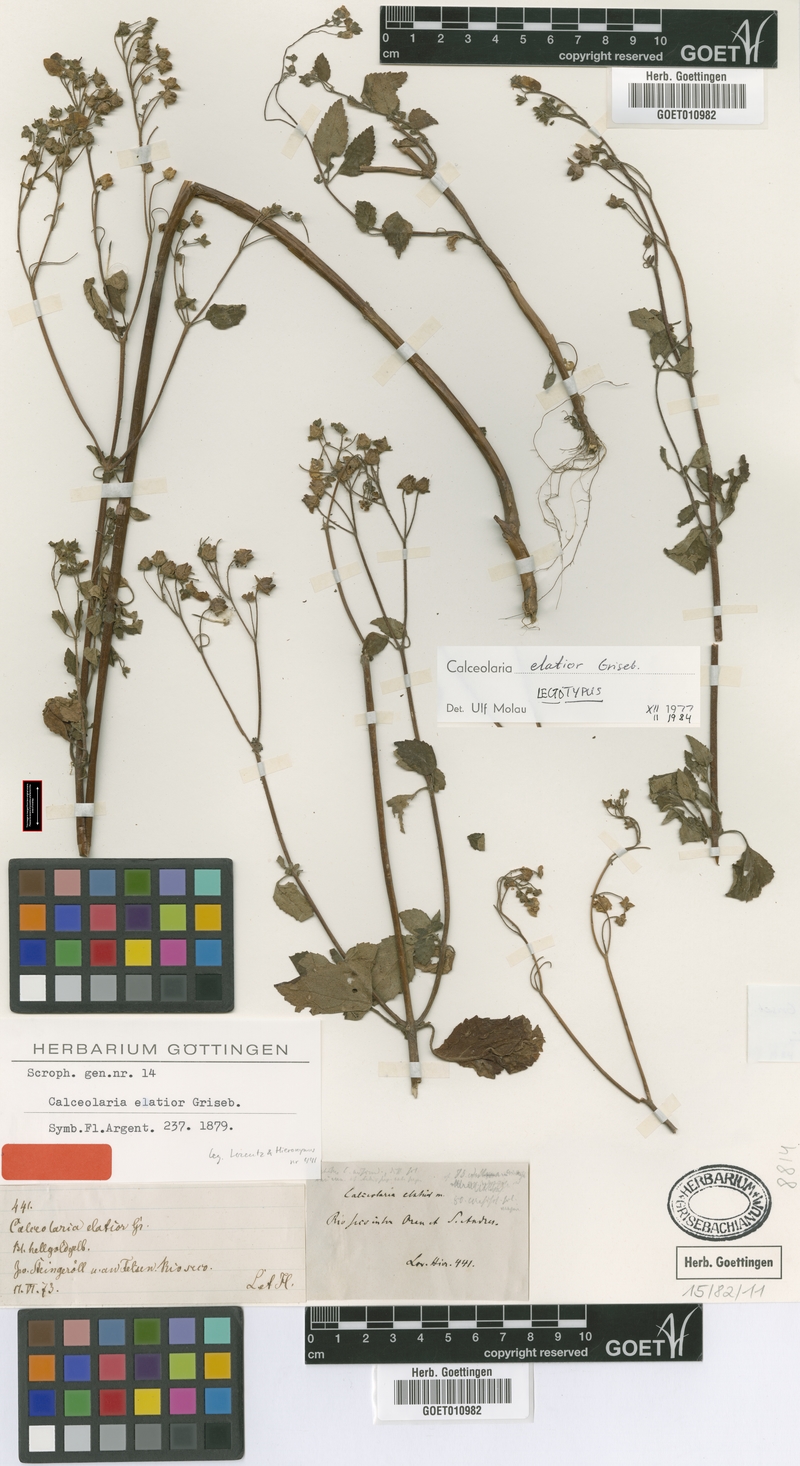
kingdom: Plantae
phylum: Tracheophyta
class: Magnoliopsida
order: Lamiales
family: Calceolariaceae
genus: Calceolaria
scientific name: Calceolaria elatior
